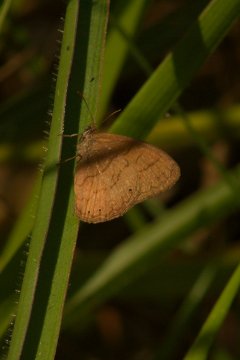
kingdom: Animalia
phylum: Arthropoda
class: Insecta
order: Lepidoptera
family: Nymphalidae
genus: Hermeuptychia
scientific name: Hermeuptychia hermes
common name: Hermes Satyr
